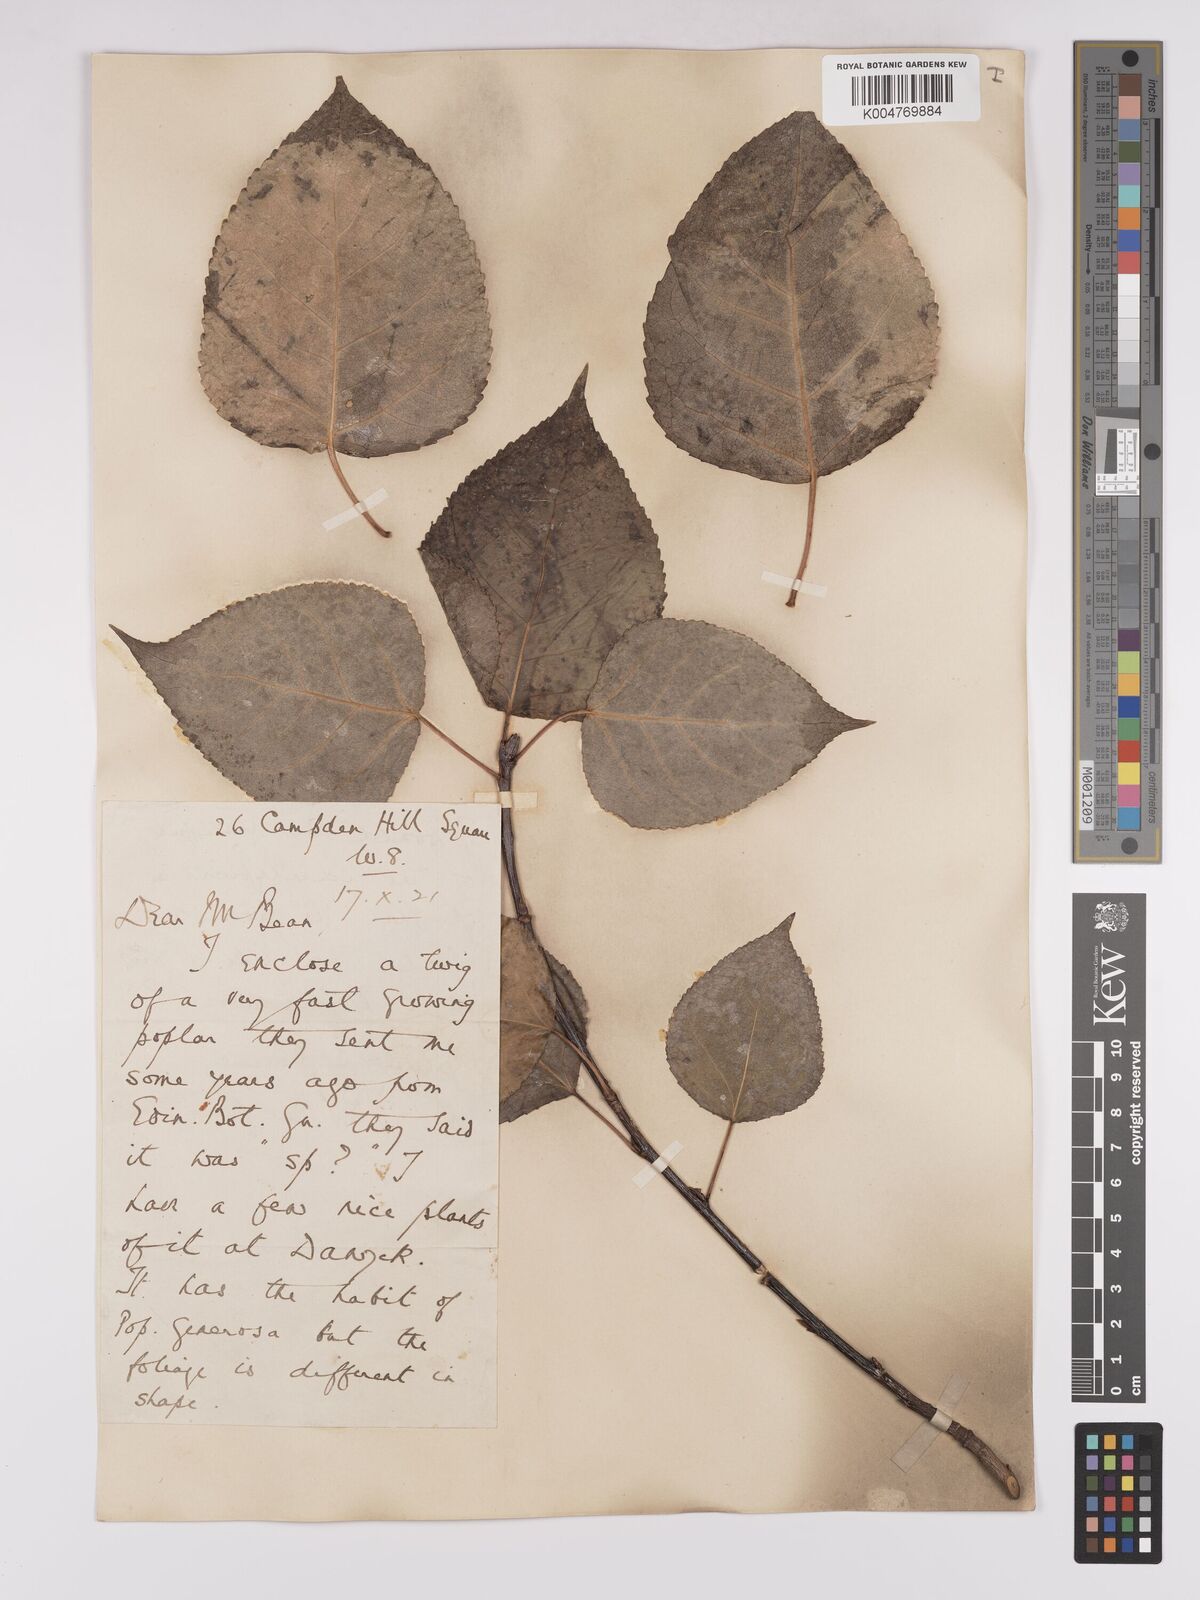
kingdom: Plantae
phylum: Tracheophyta
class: Magnoliopsida
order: Malpighiales
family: Salicaceae
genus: Populus
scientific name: Populus dubia
